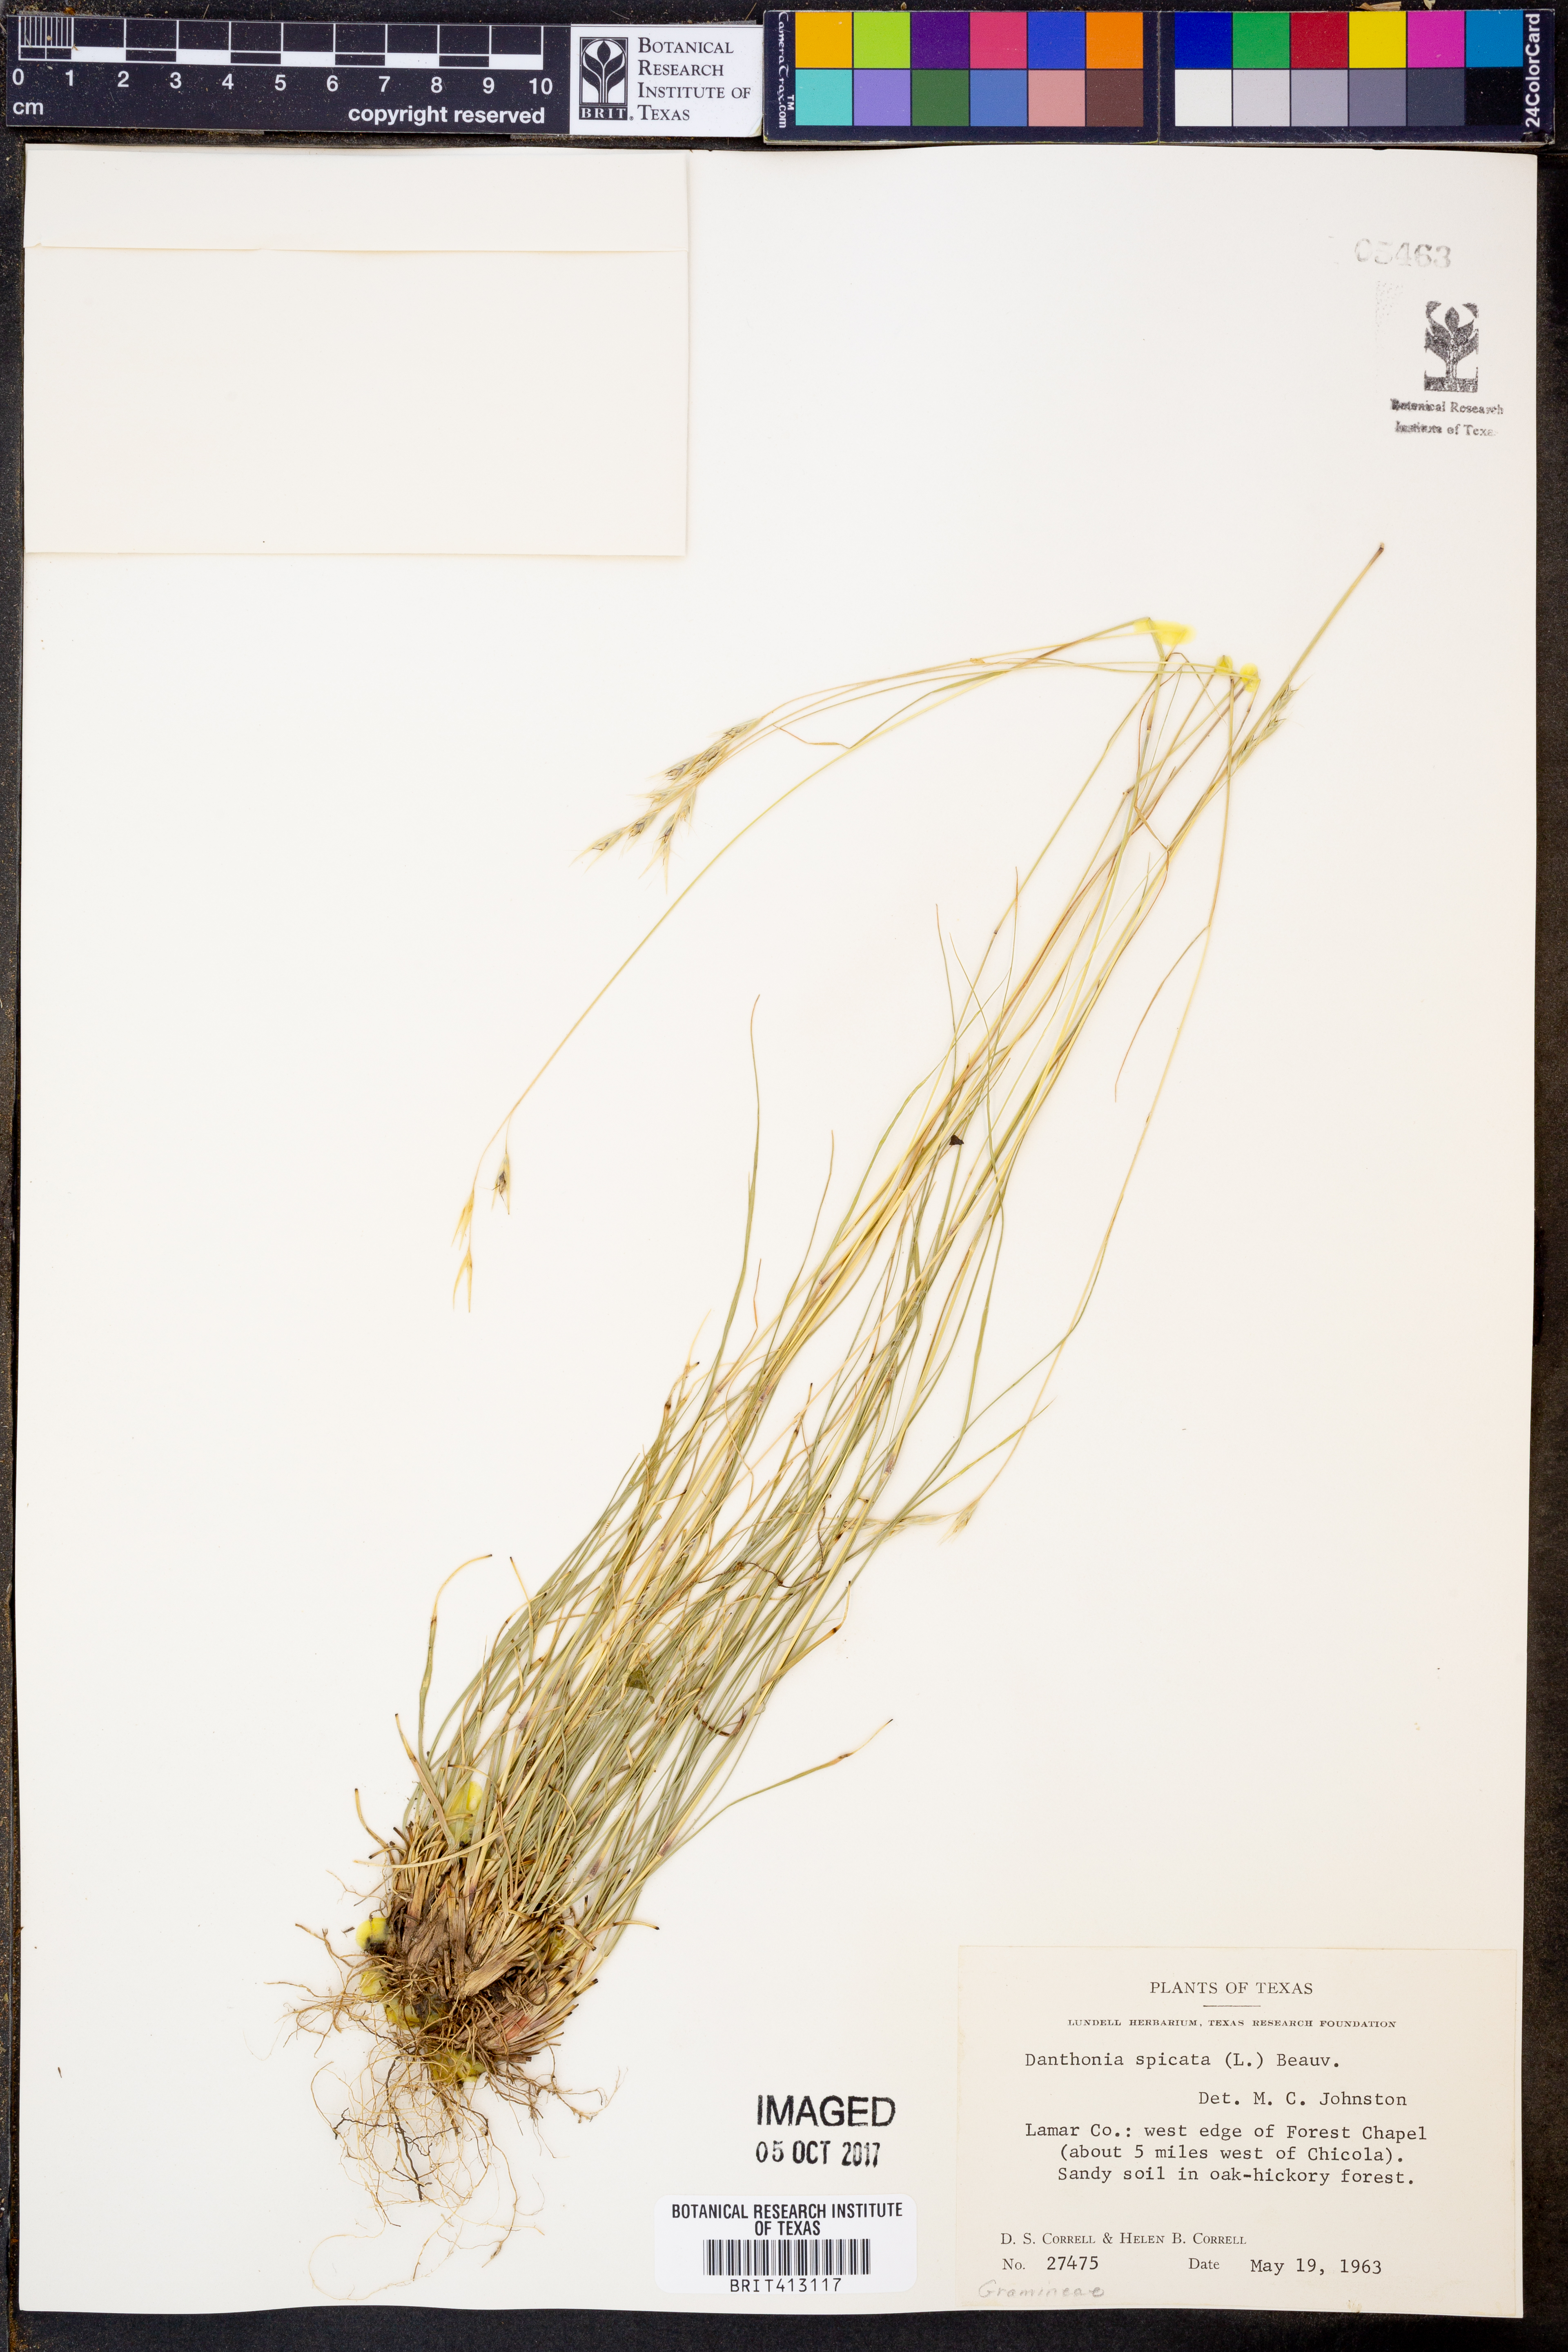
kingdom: Plantae
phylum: Tracheophyta
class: Liliopsida
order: Poales
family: Poaceae
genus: Danthonia
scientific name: Danthonia spicata
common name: Common wild oatgrass
